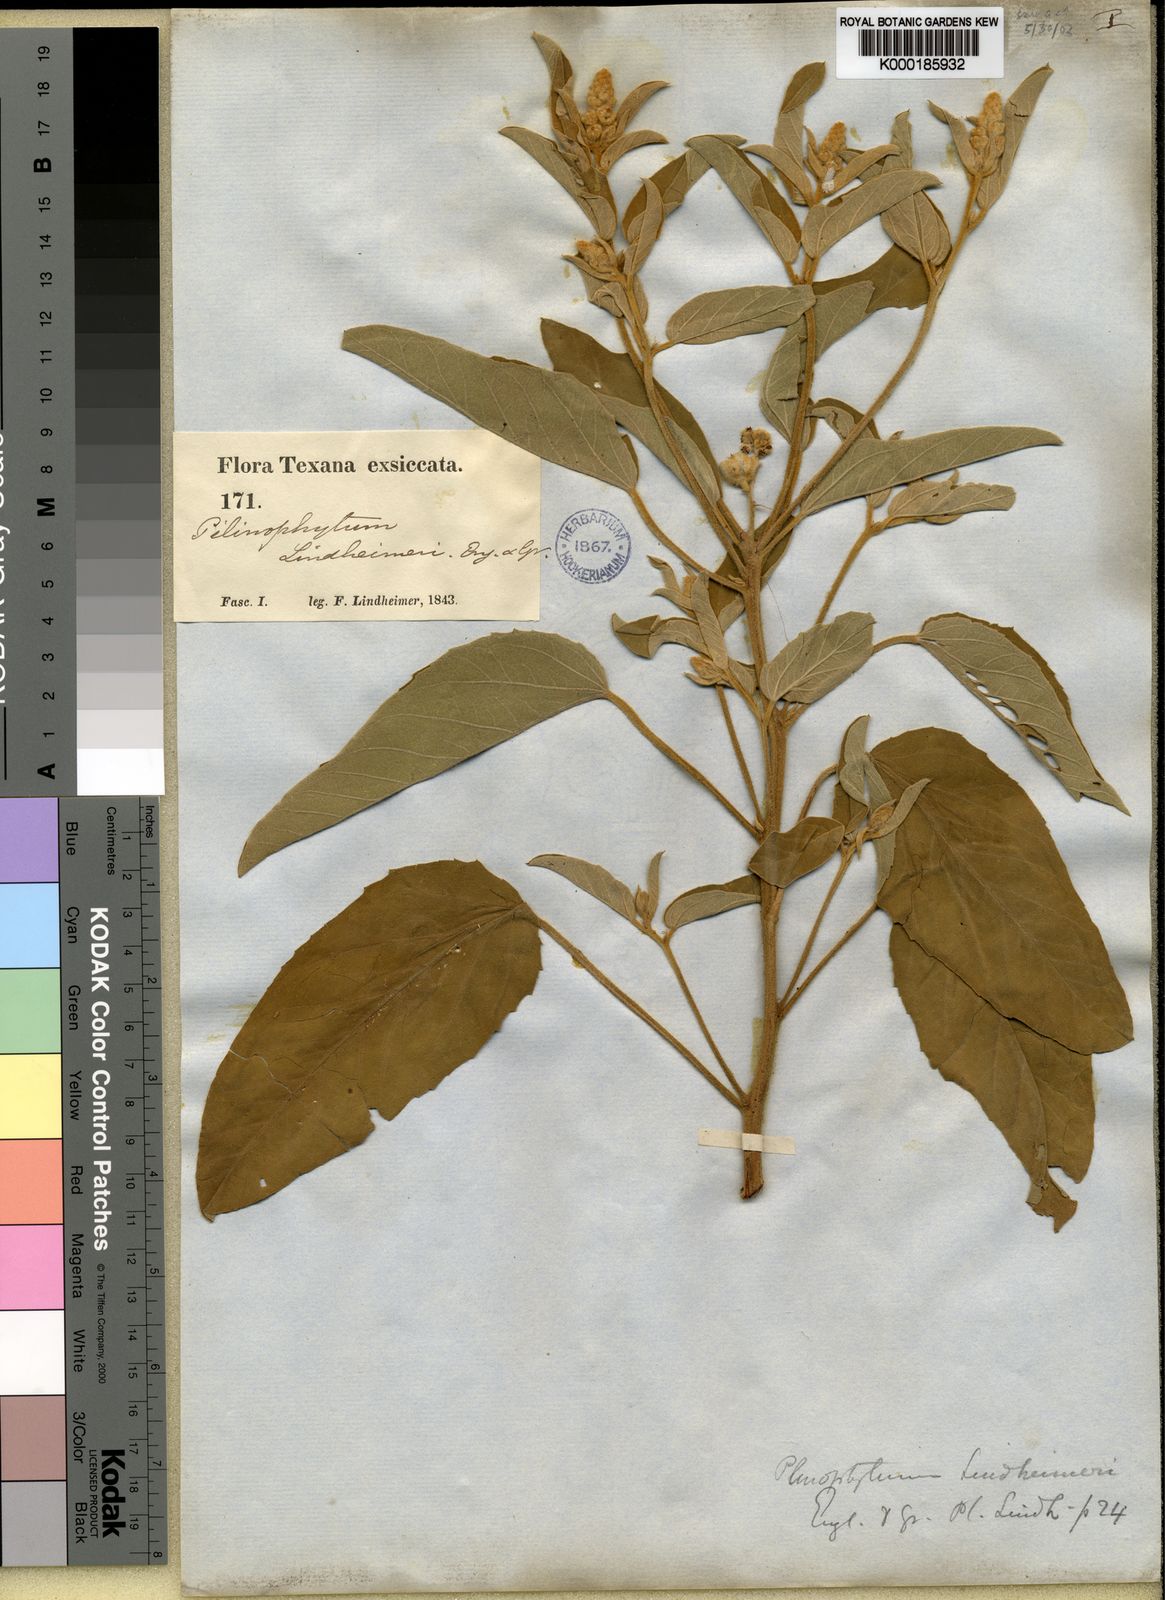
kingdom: Plantae
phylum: Tracheophyta
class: Magnoliopsida
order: Malpighiales
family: Euphorbiaceae
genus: Croton
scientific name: Croton capitatus
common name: Woolly croton
